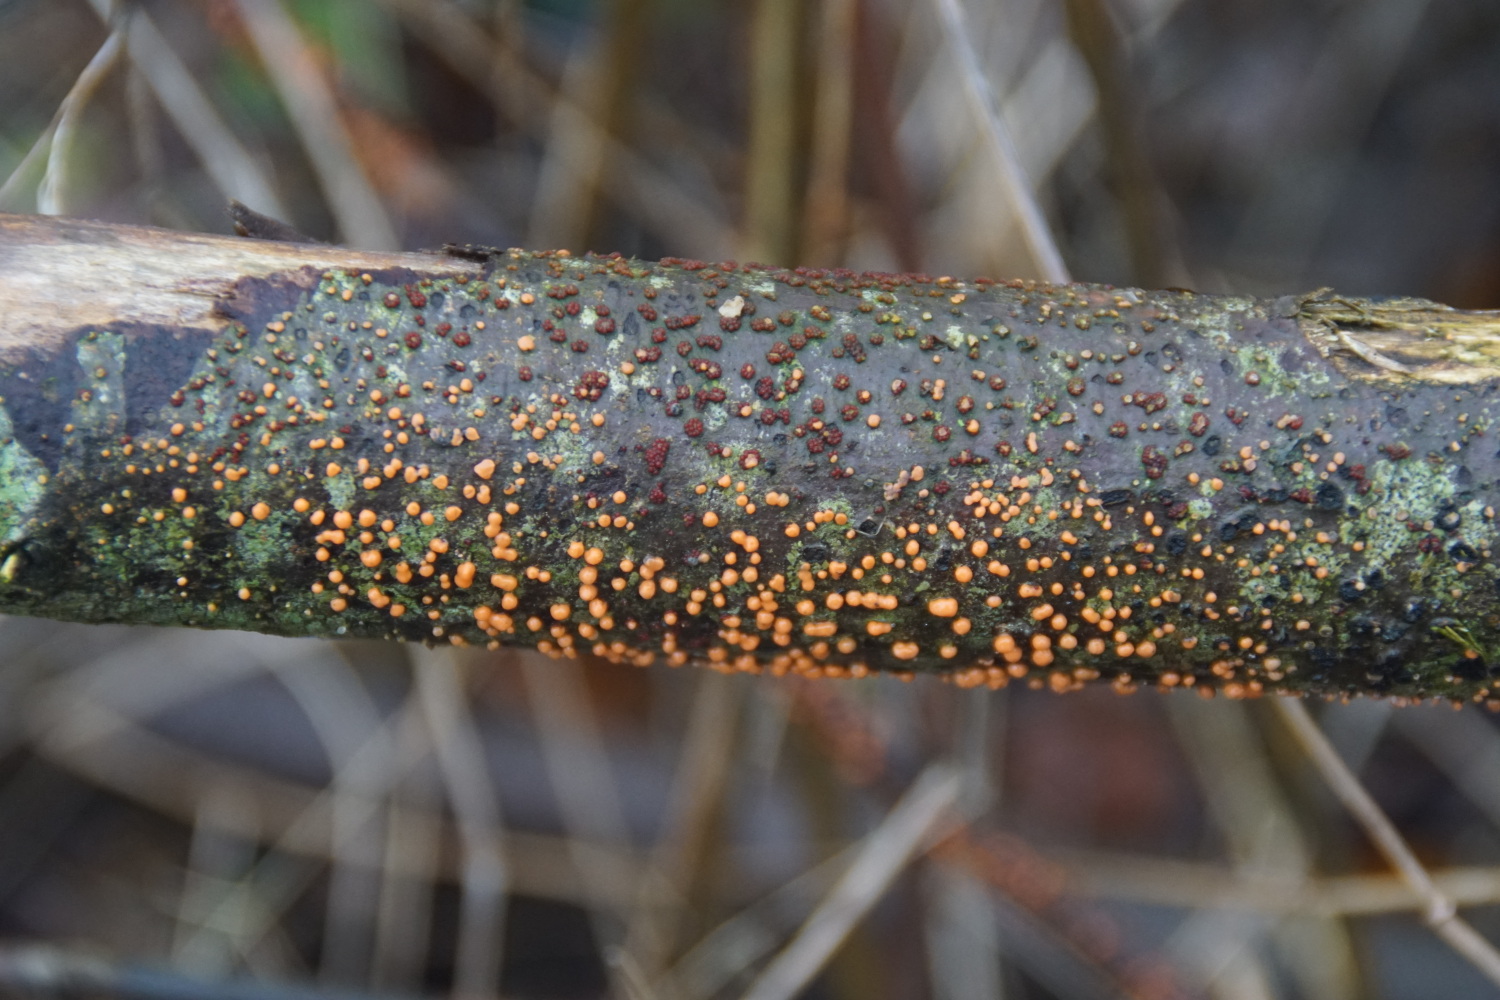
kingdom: Fungi
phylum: Ascomycota
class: Sordariomycetes
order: Hypocreales
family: Nectriaceae
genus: Nectria
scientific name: Nectria cinnabarina
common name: almindelig cinnobersvamp
